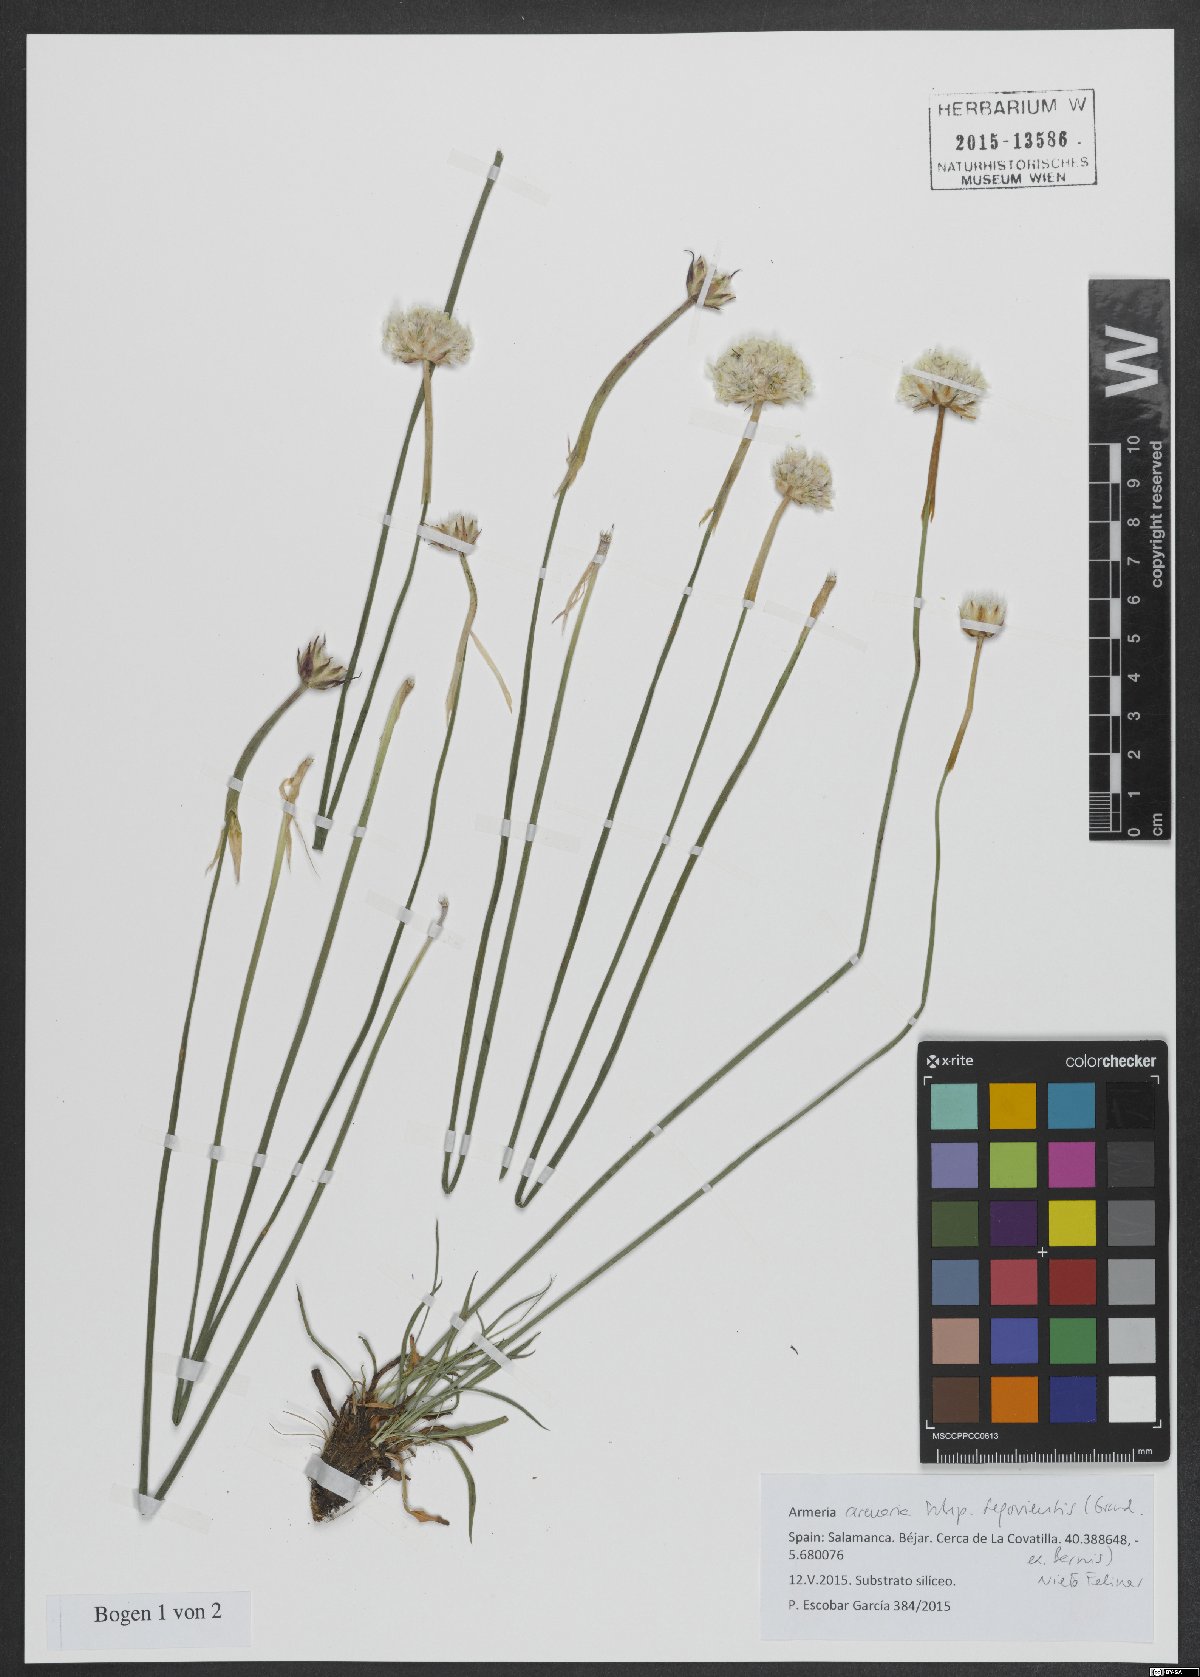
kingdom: Plantae
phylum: Tracheophyta
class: Magnoliopsida
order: Caryophyllales
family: Plumbaginaceae
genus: Armeria
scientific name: Armeria arenaria
